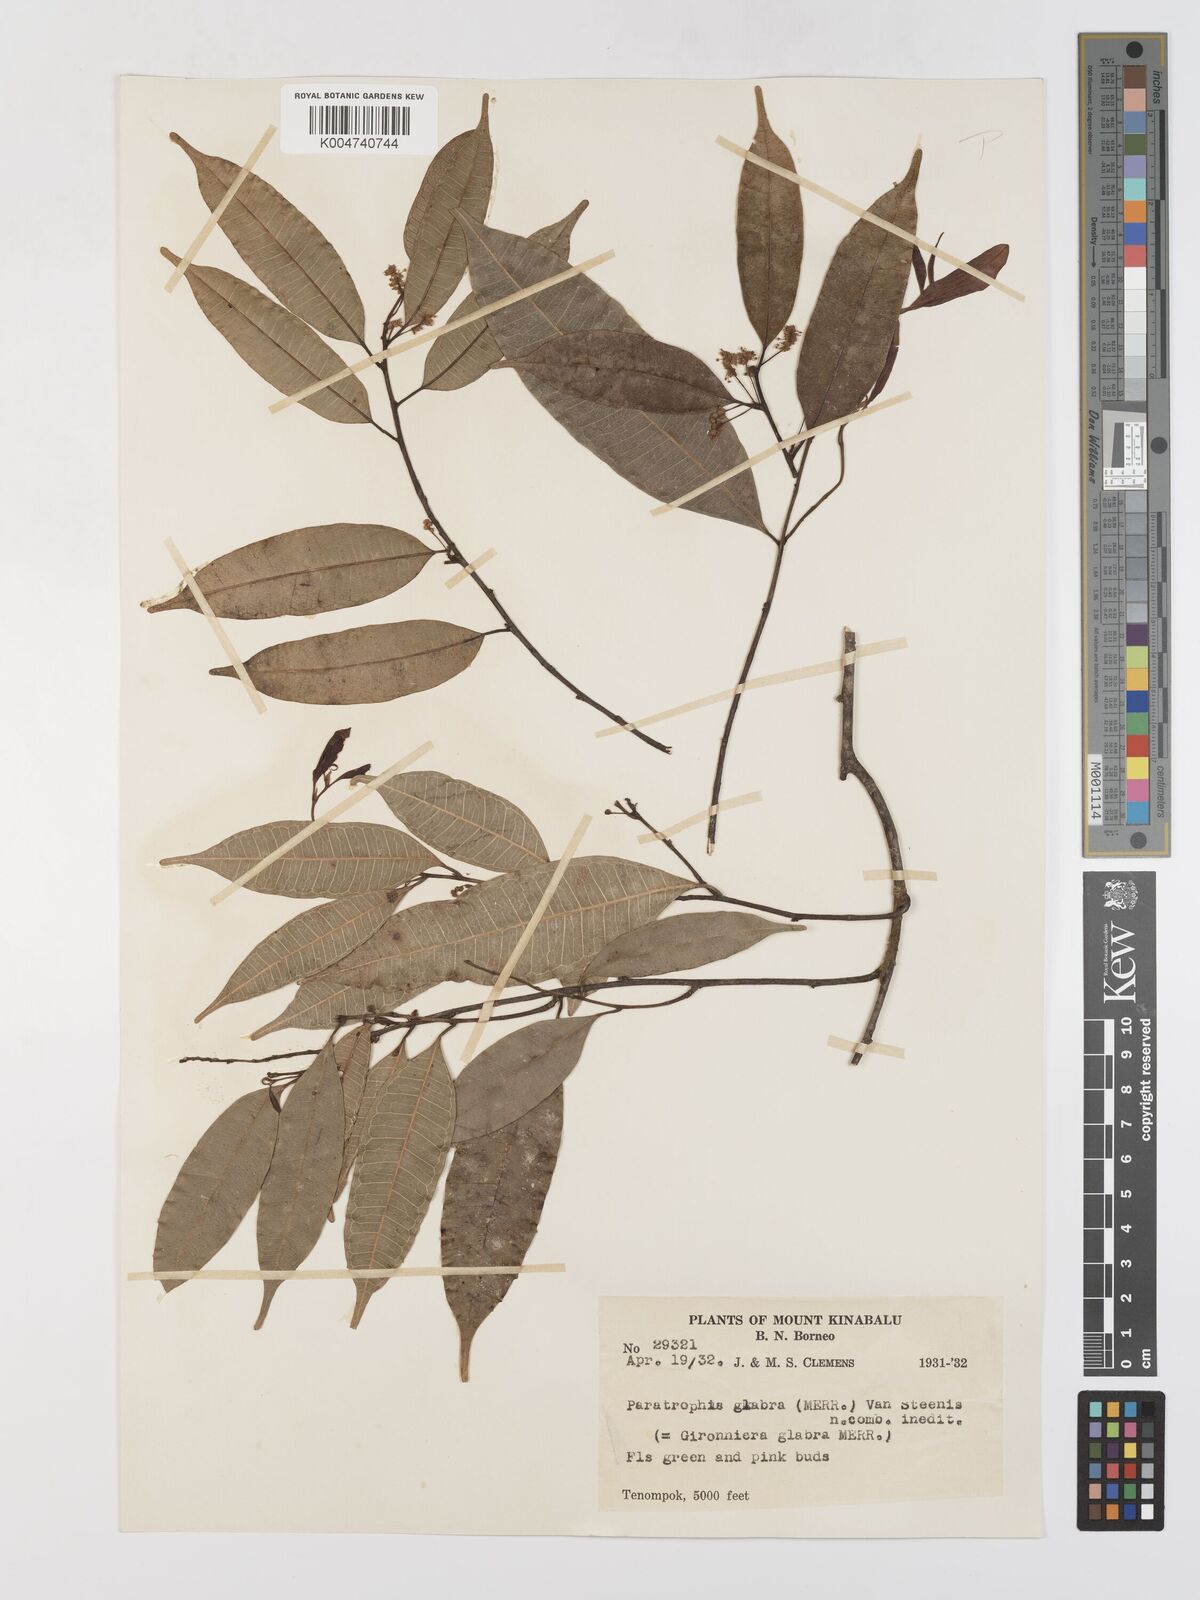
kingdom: Plantae
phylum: Tracheophyta
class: Magnoliopsida
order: Rosales
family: Moraceae
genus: Paratrophis
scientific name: Paratrophis glabra
